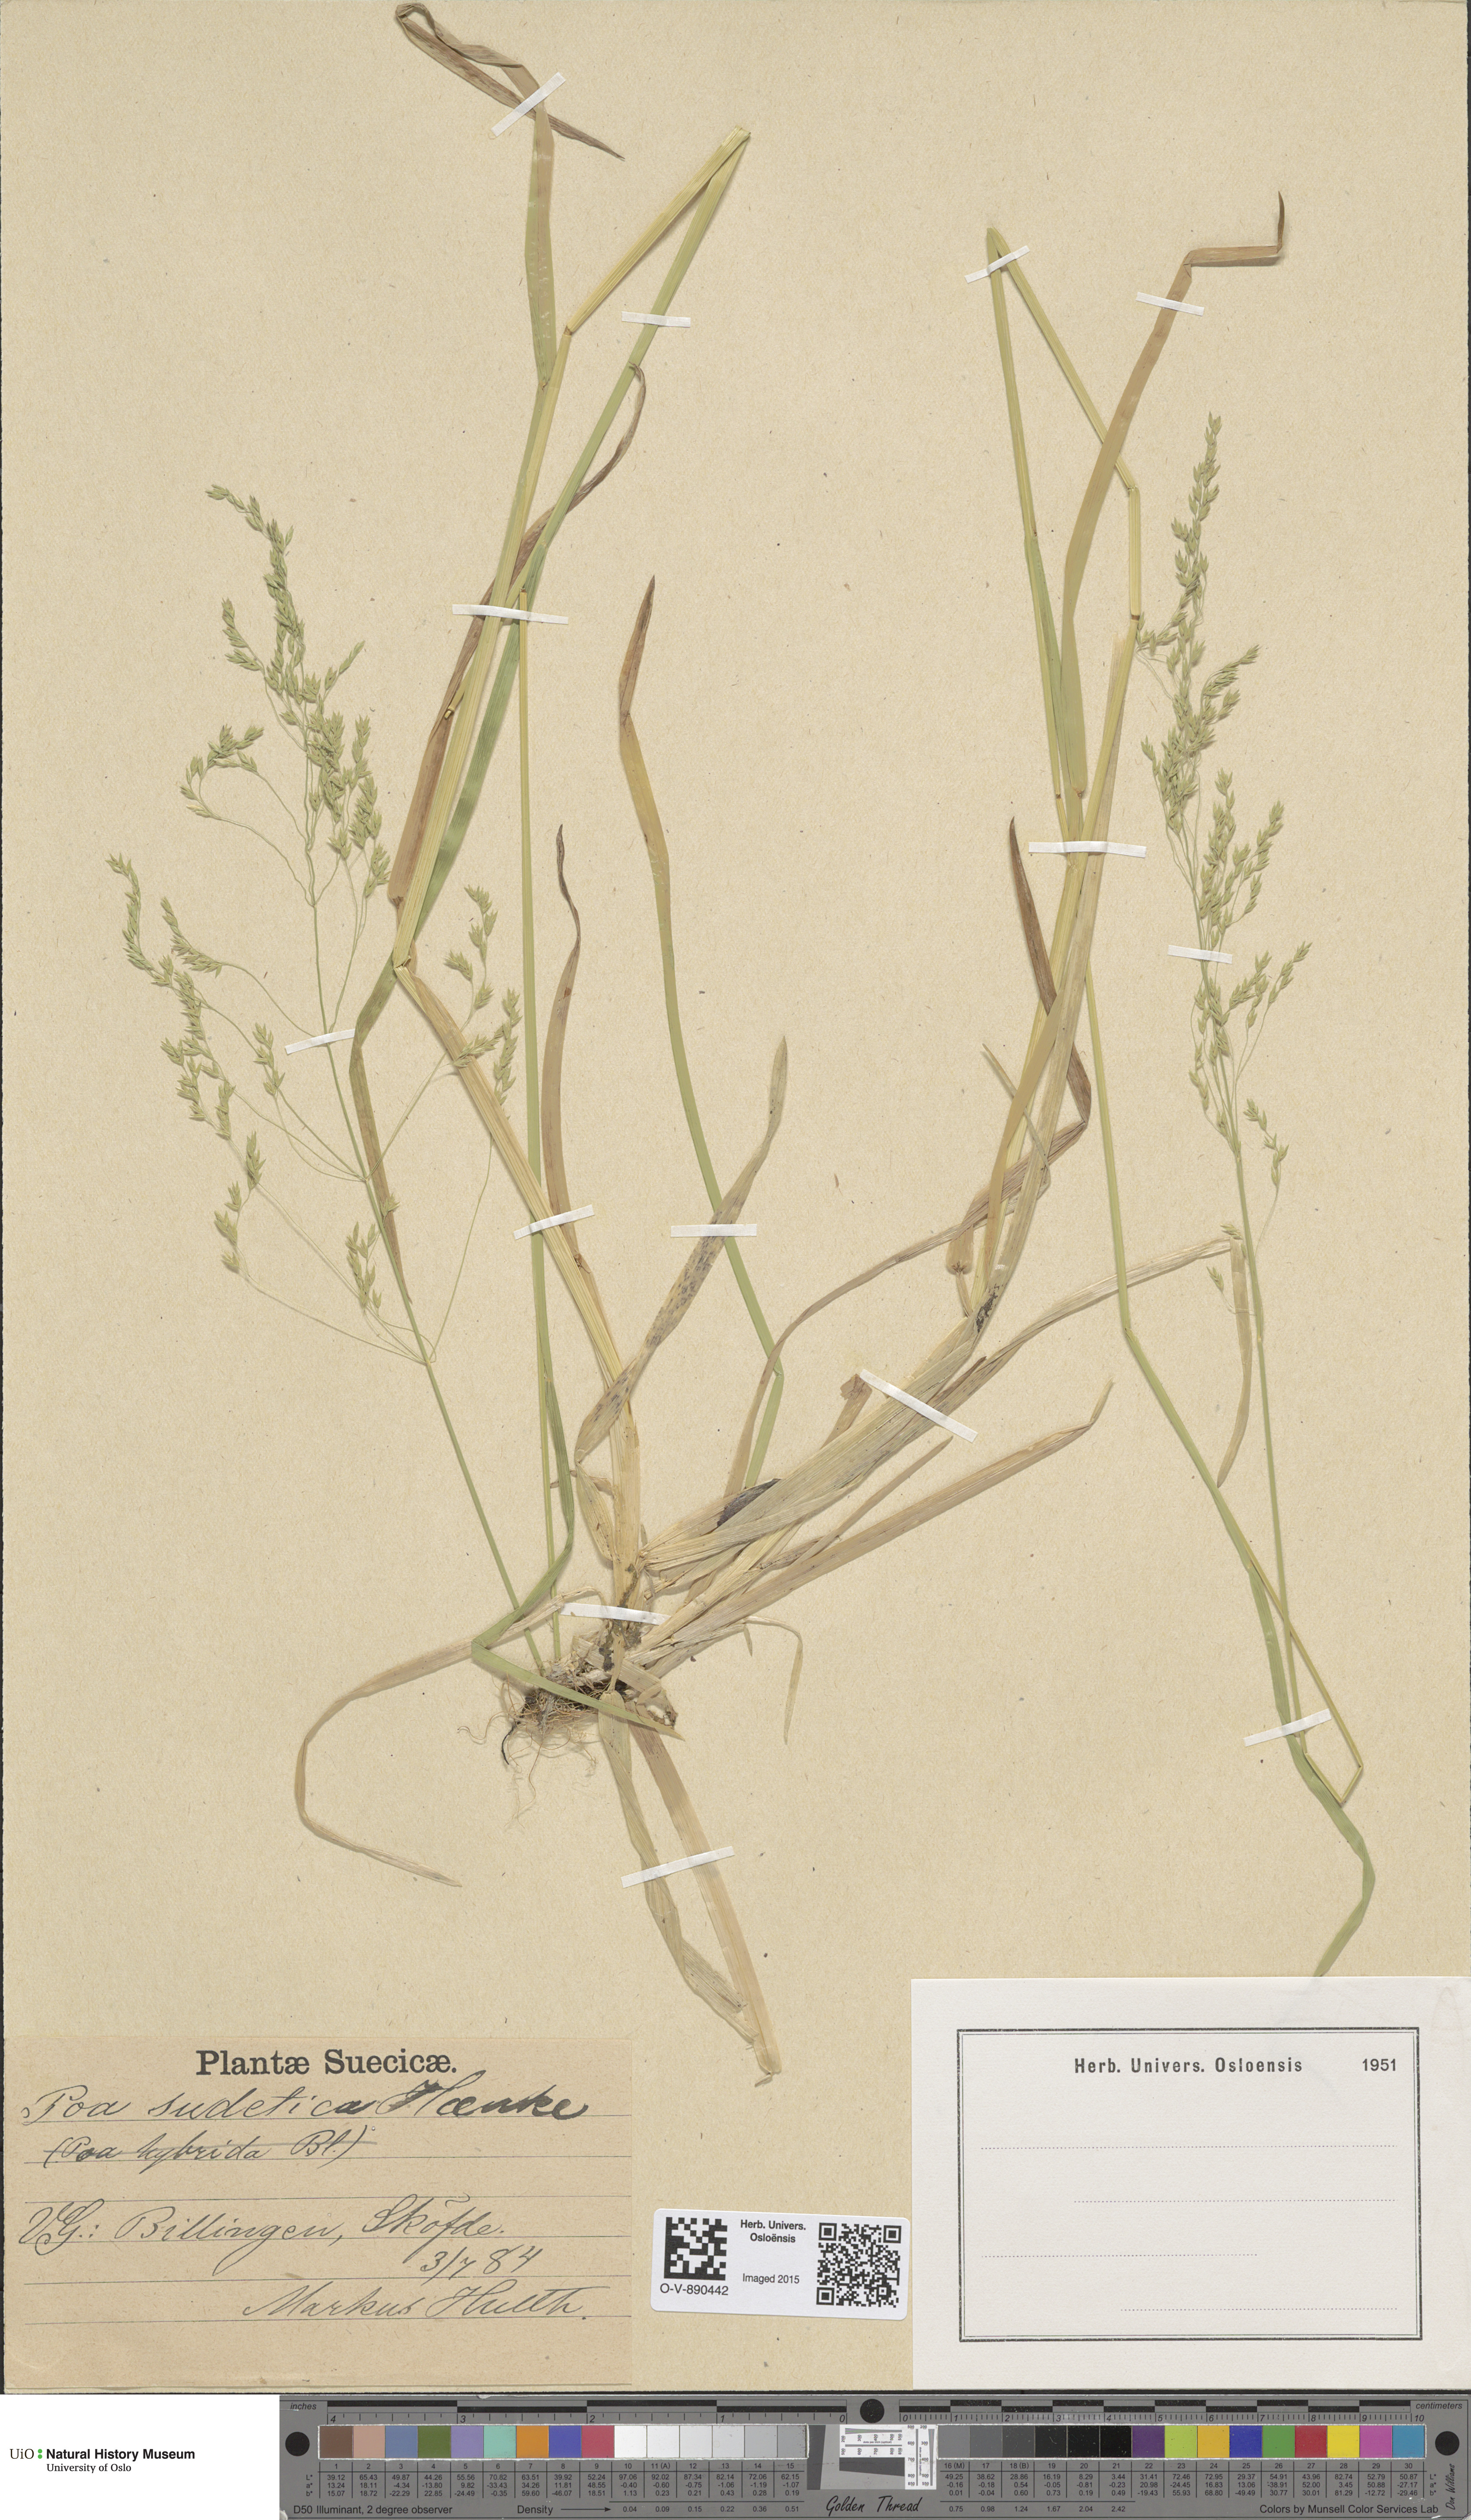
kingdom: Plantae
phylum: Tracheophyta
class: Liliopsida
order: Poales
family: Poaceae
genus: Poa
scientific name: Poa remota
